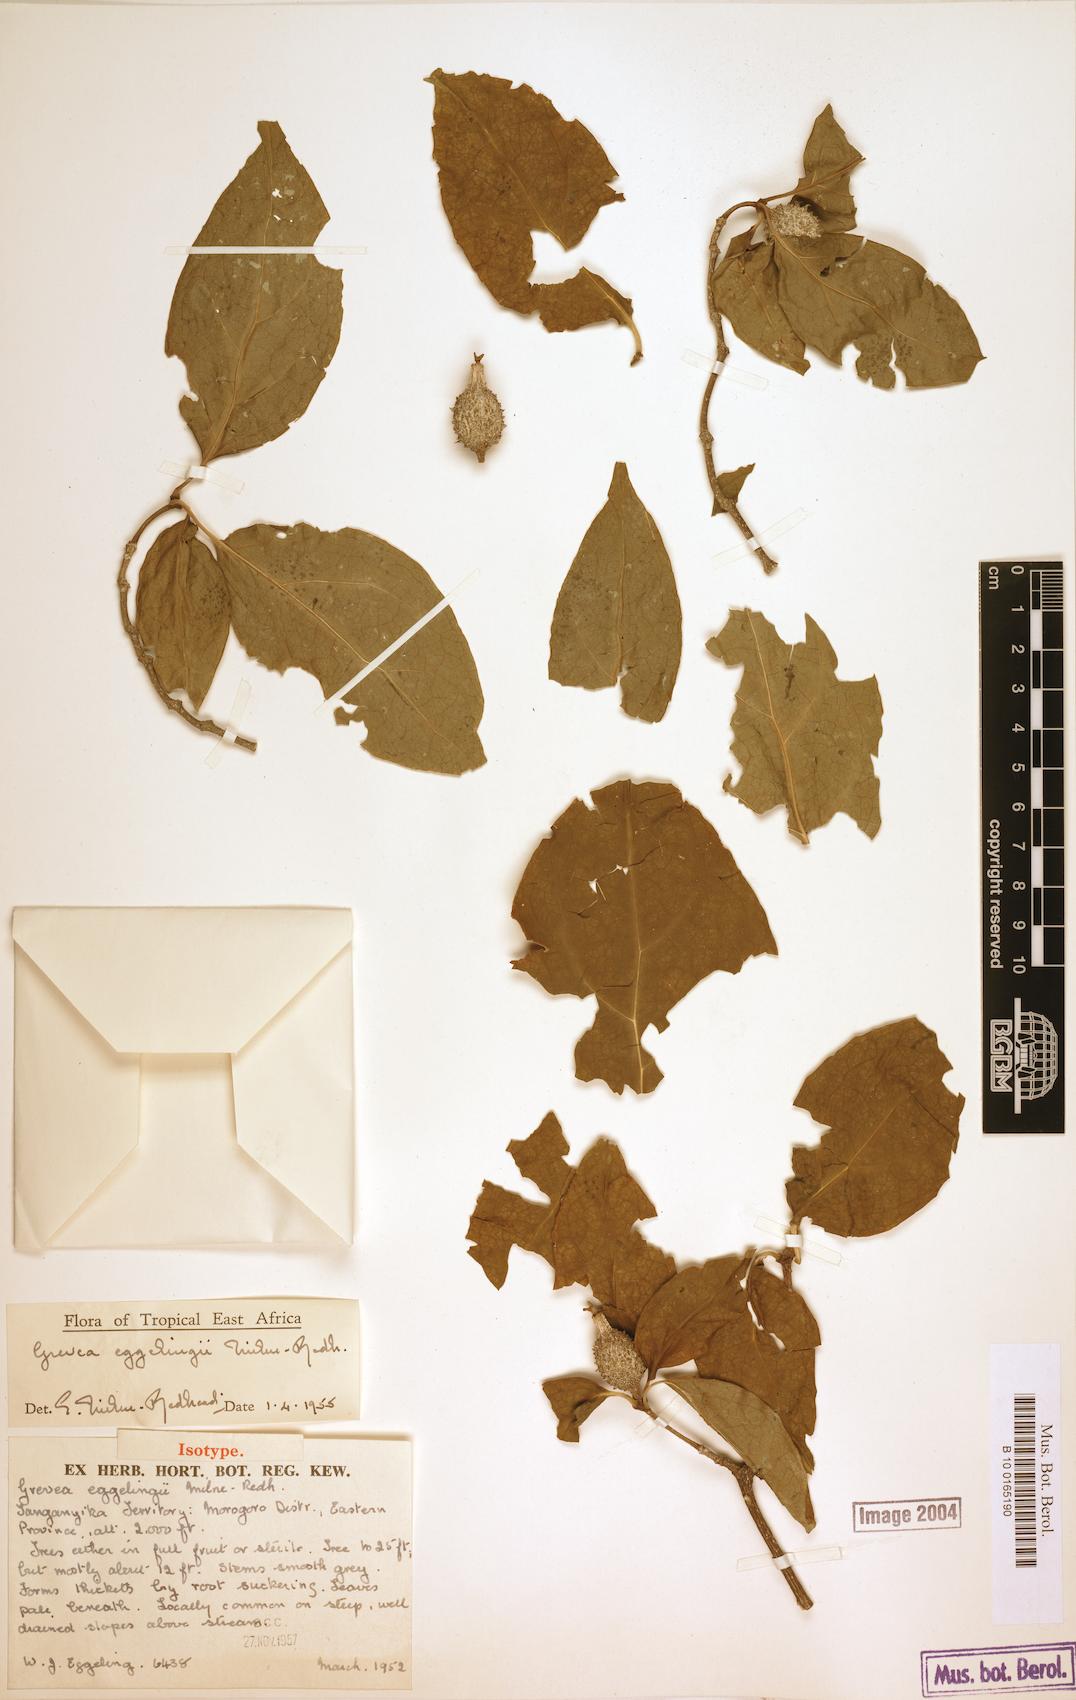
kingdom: Plantae
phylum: Tracheophyta
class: Magnoliopsida
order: Malvales
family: Malvaceae
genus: Grewia
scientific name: Grewia
